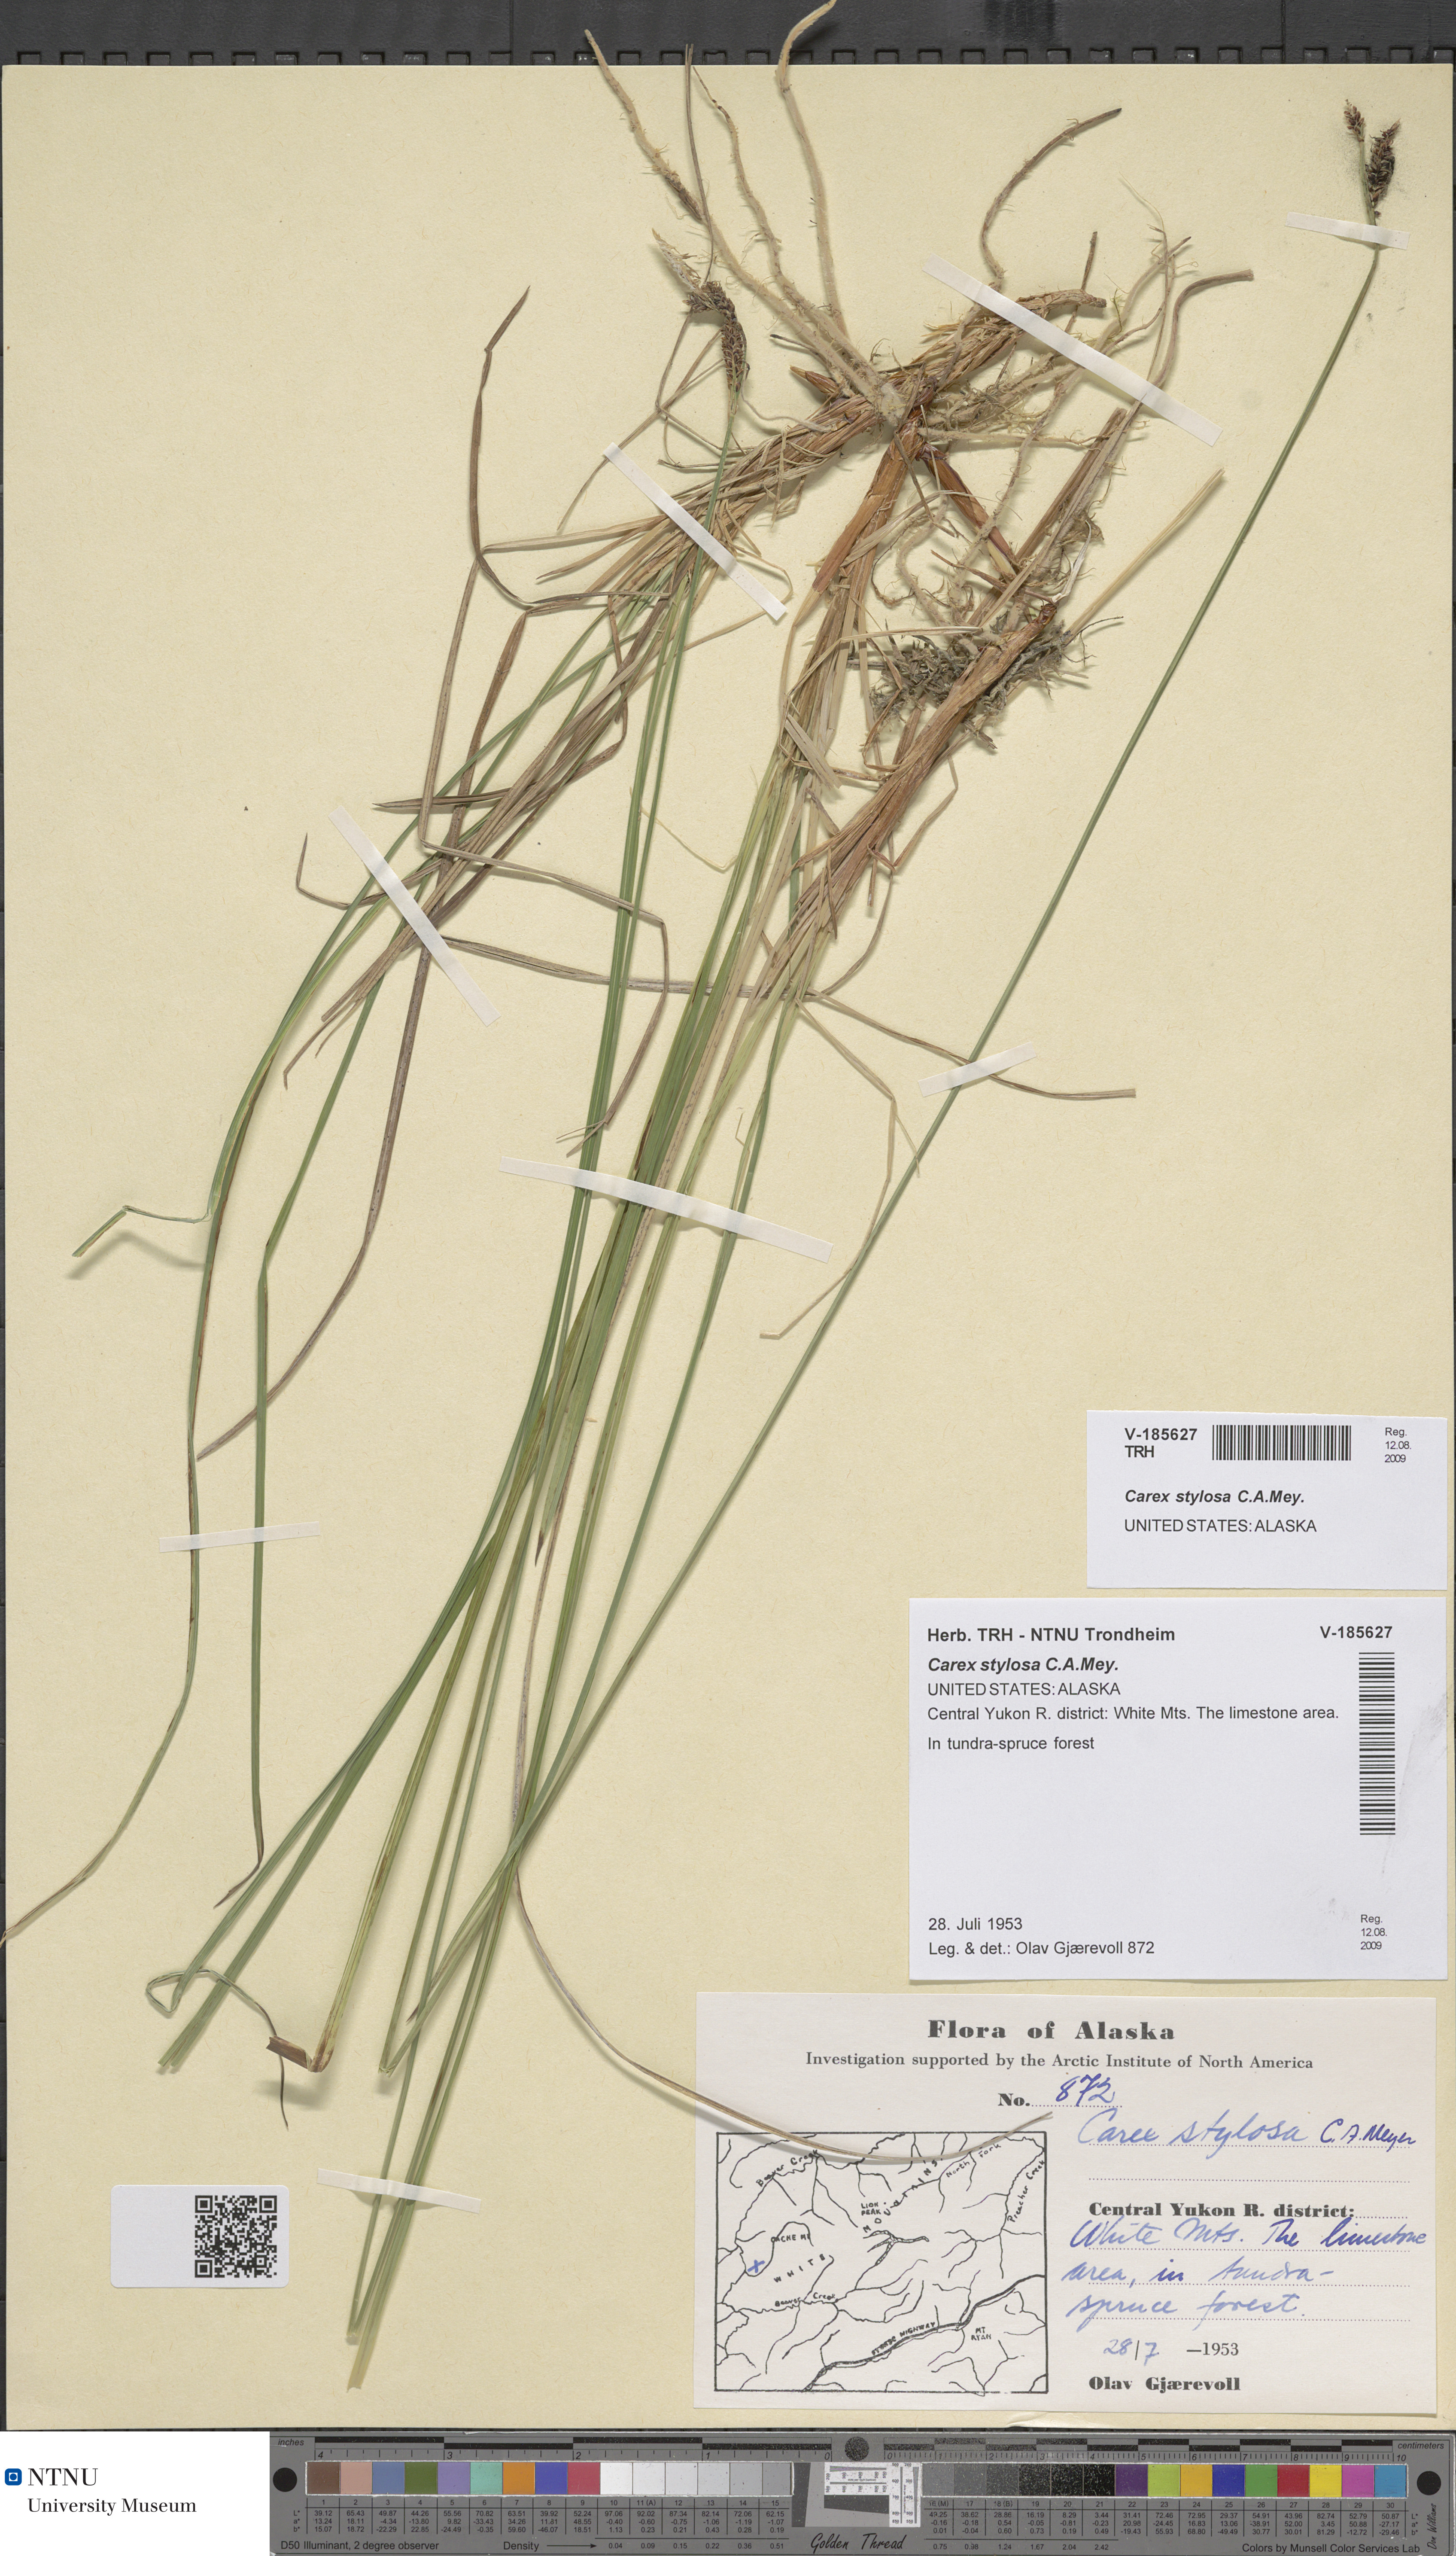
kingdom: Plantae
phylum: Tracheophyta
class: Liliopsida
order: Poales
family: Cyperaceae
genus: Carex
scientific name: Carex stylosa
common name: Long-styled sedge
